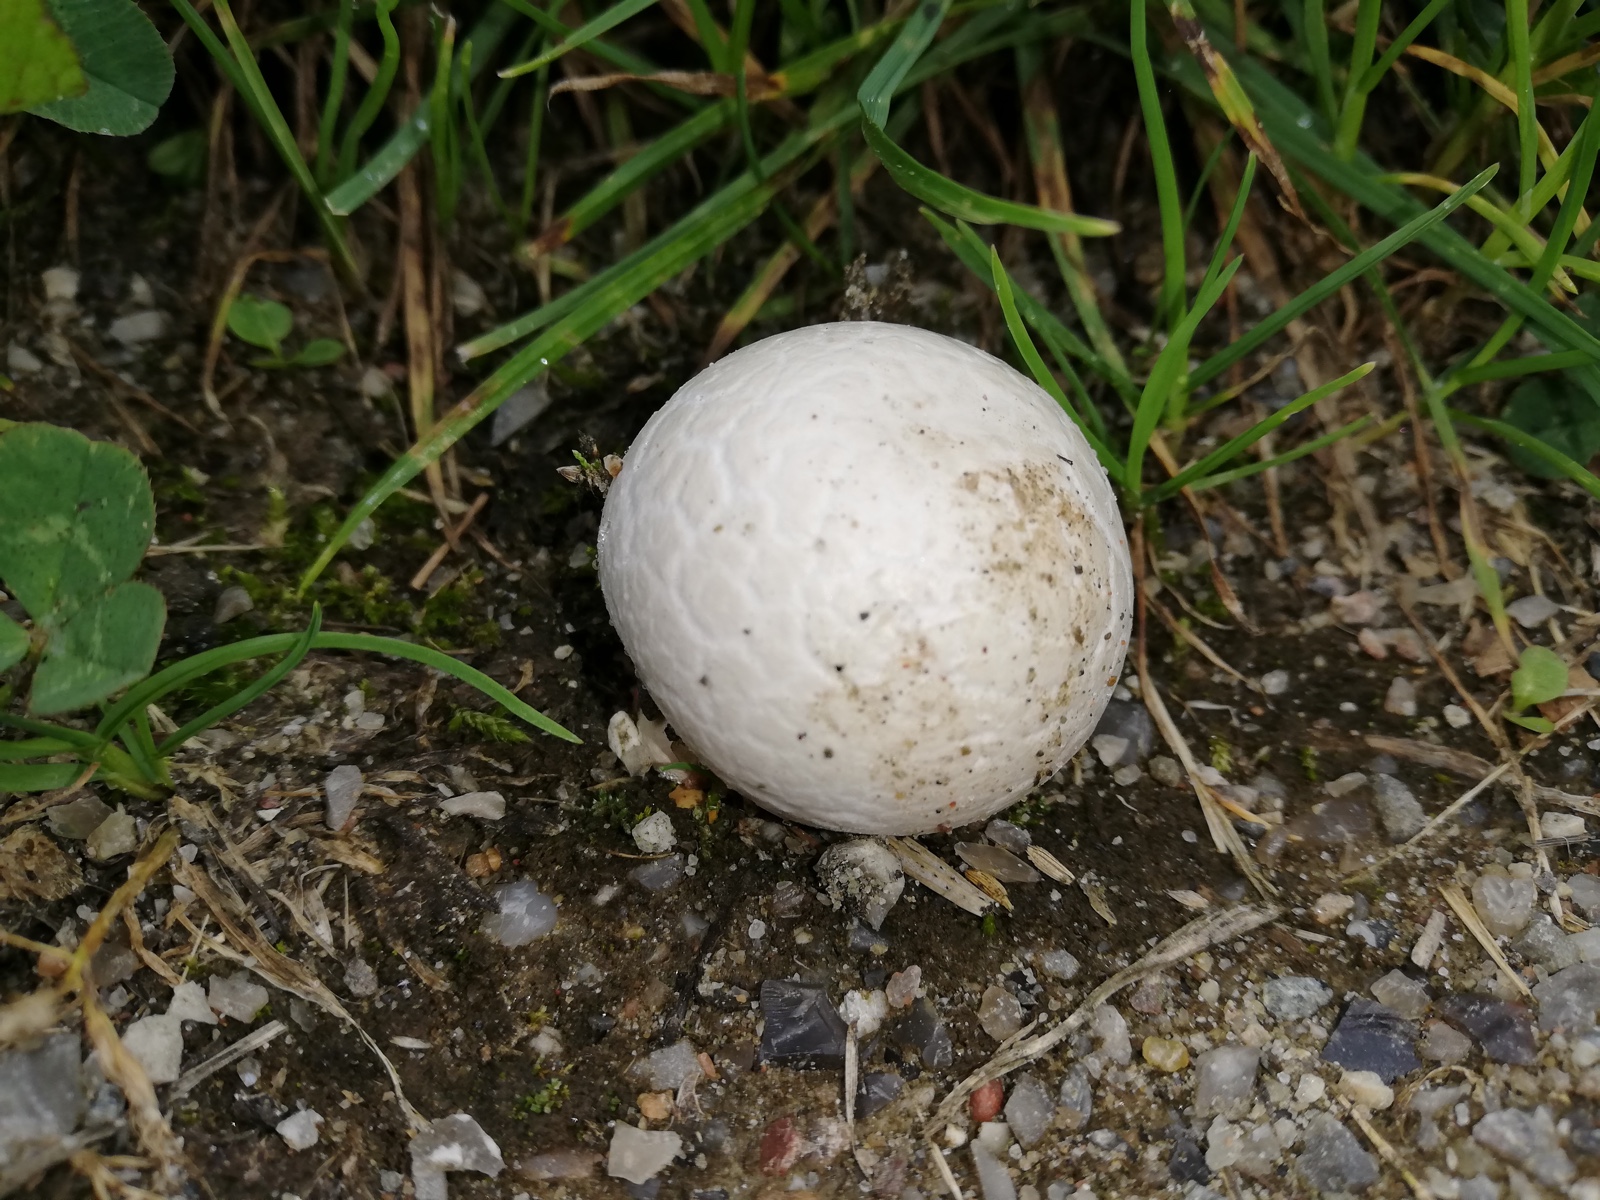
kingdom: Fungi
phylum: Basidiomycota
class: Agaricomycetes
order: Agaricales
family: Lycoperdaceae
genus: Bovista
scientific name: Bovista
